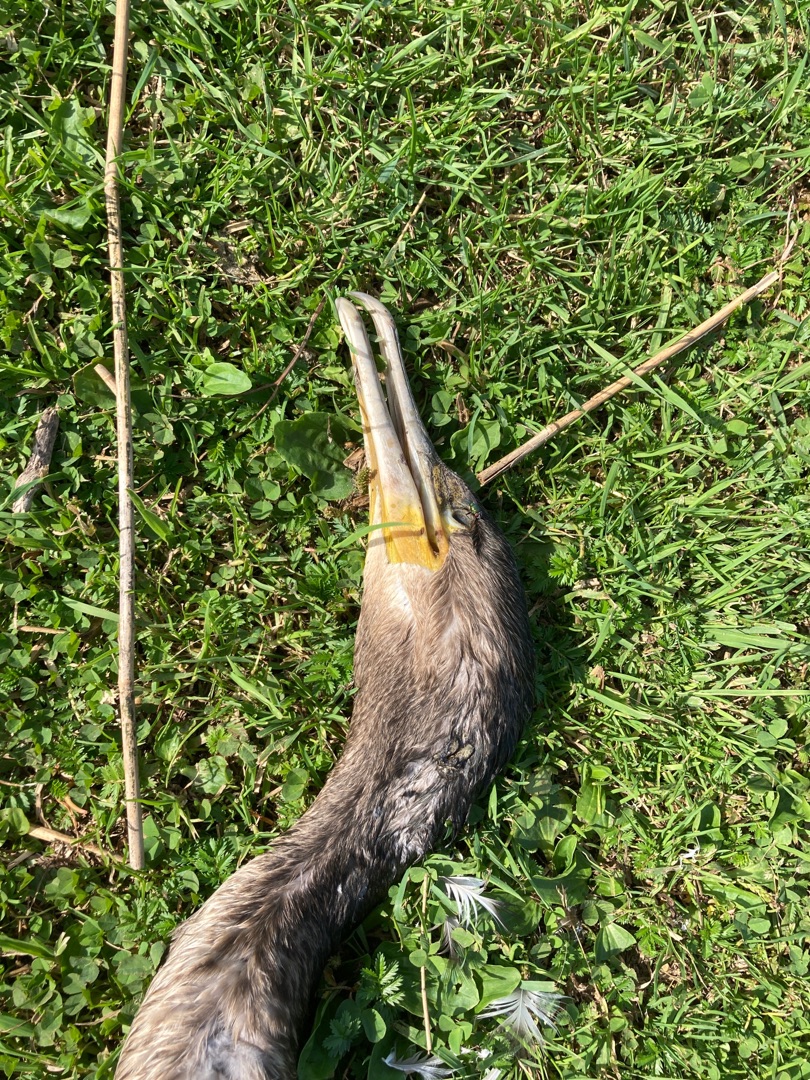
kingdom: Animalia
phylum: Chordata
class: Aves
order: Suliformes
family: Phalacrocoracidae
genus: Phalacrocorax
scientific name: Phalacrocorax carbo
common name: Skarv
